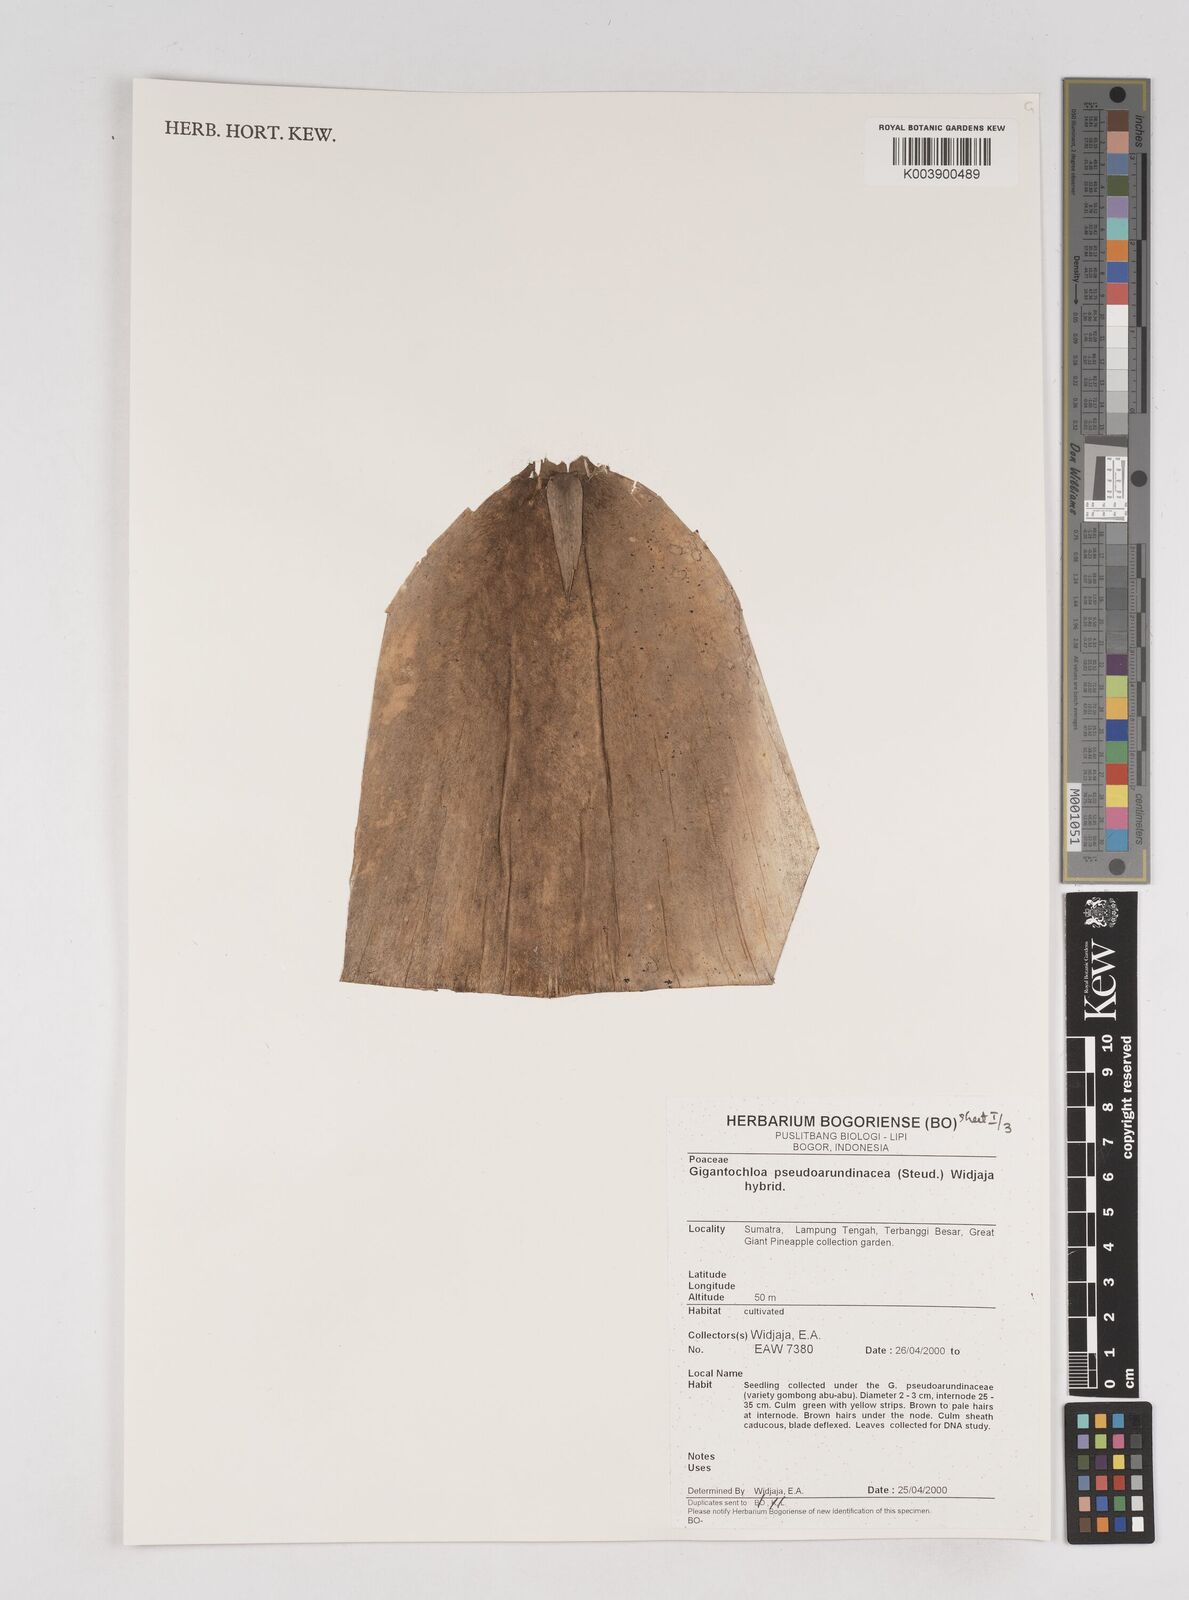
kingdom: Plantae
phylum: Tracheophyta
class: Liliopsida
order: Poales
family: Poaceae
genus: Gigantochloa
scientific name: Gigantochloa verticillata
